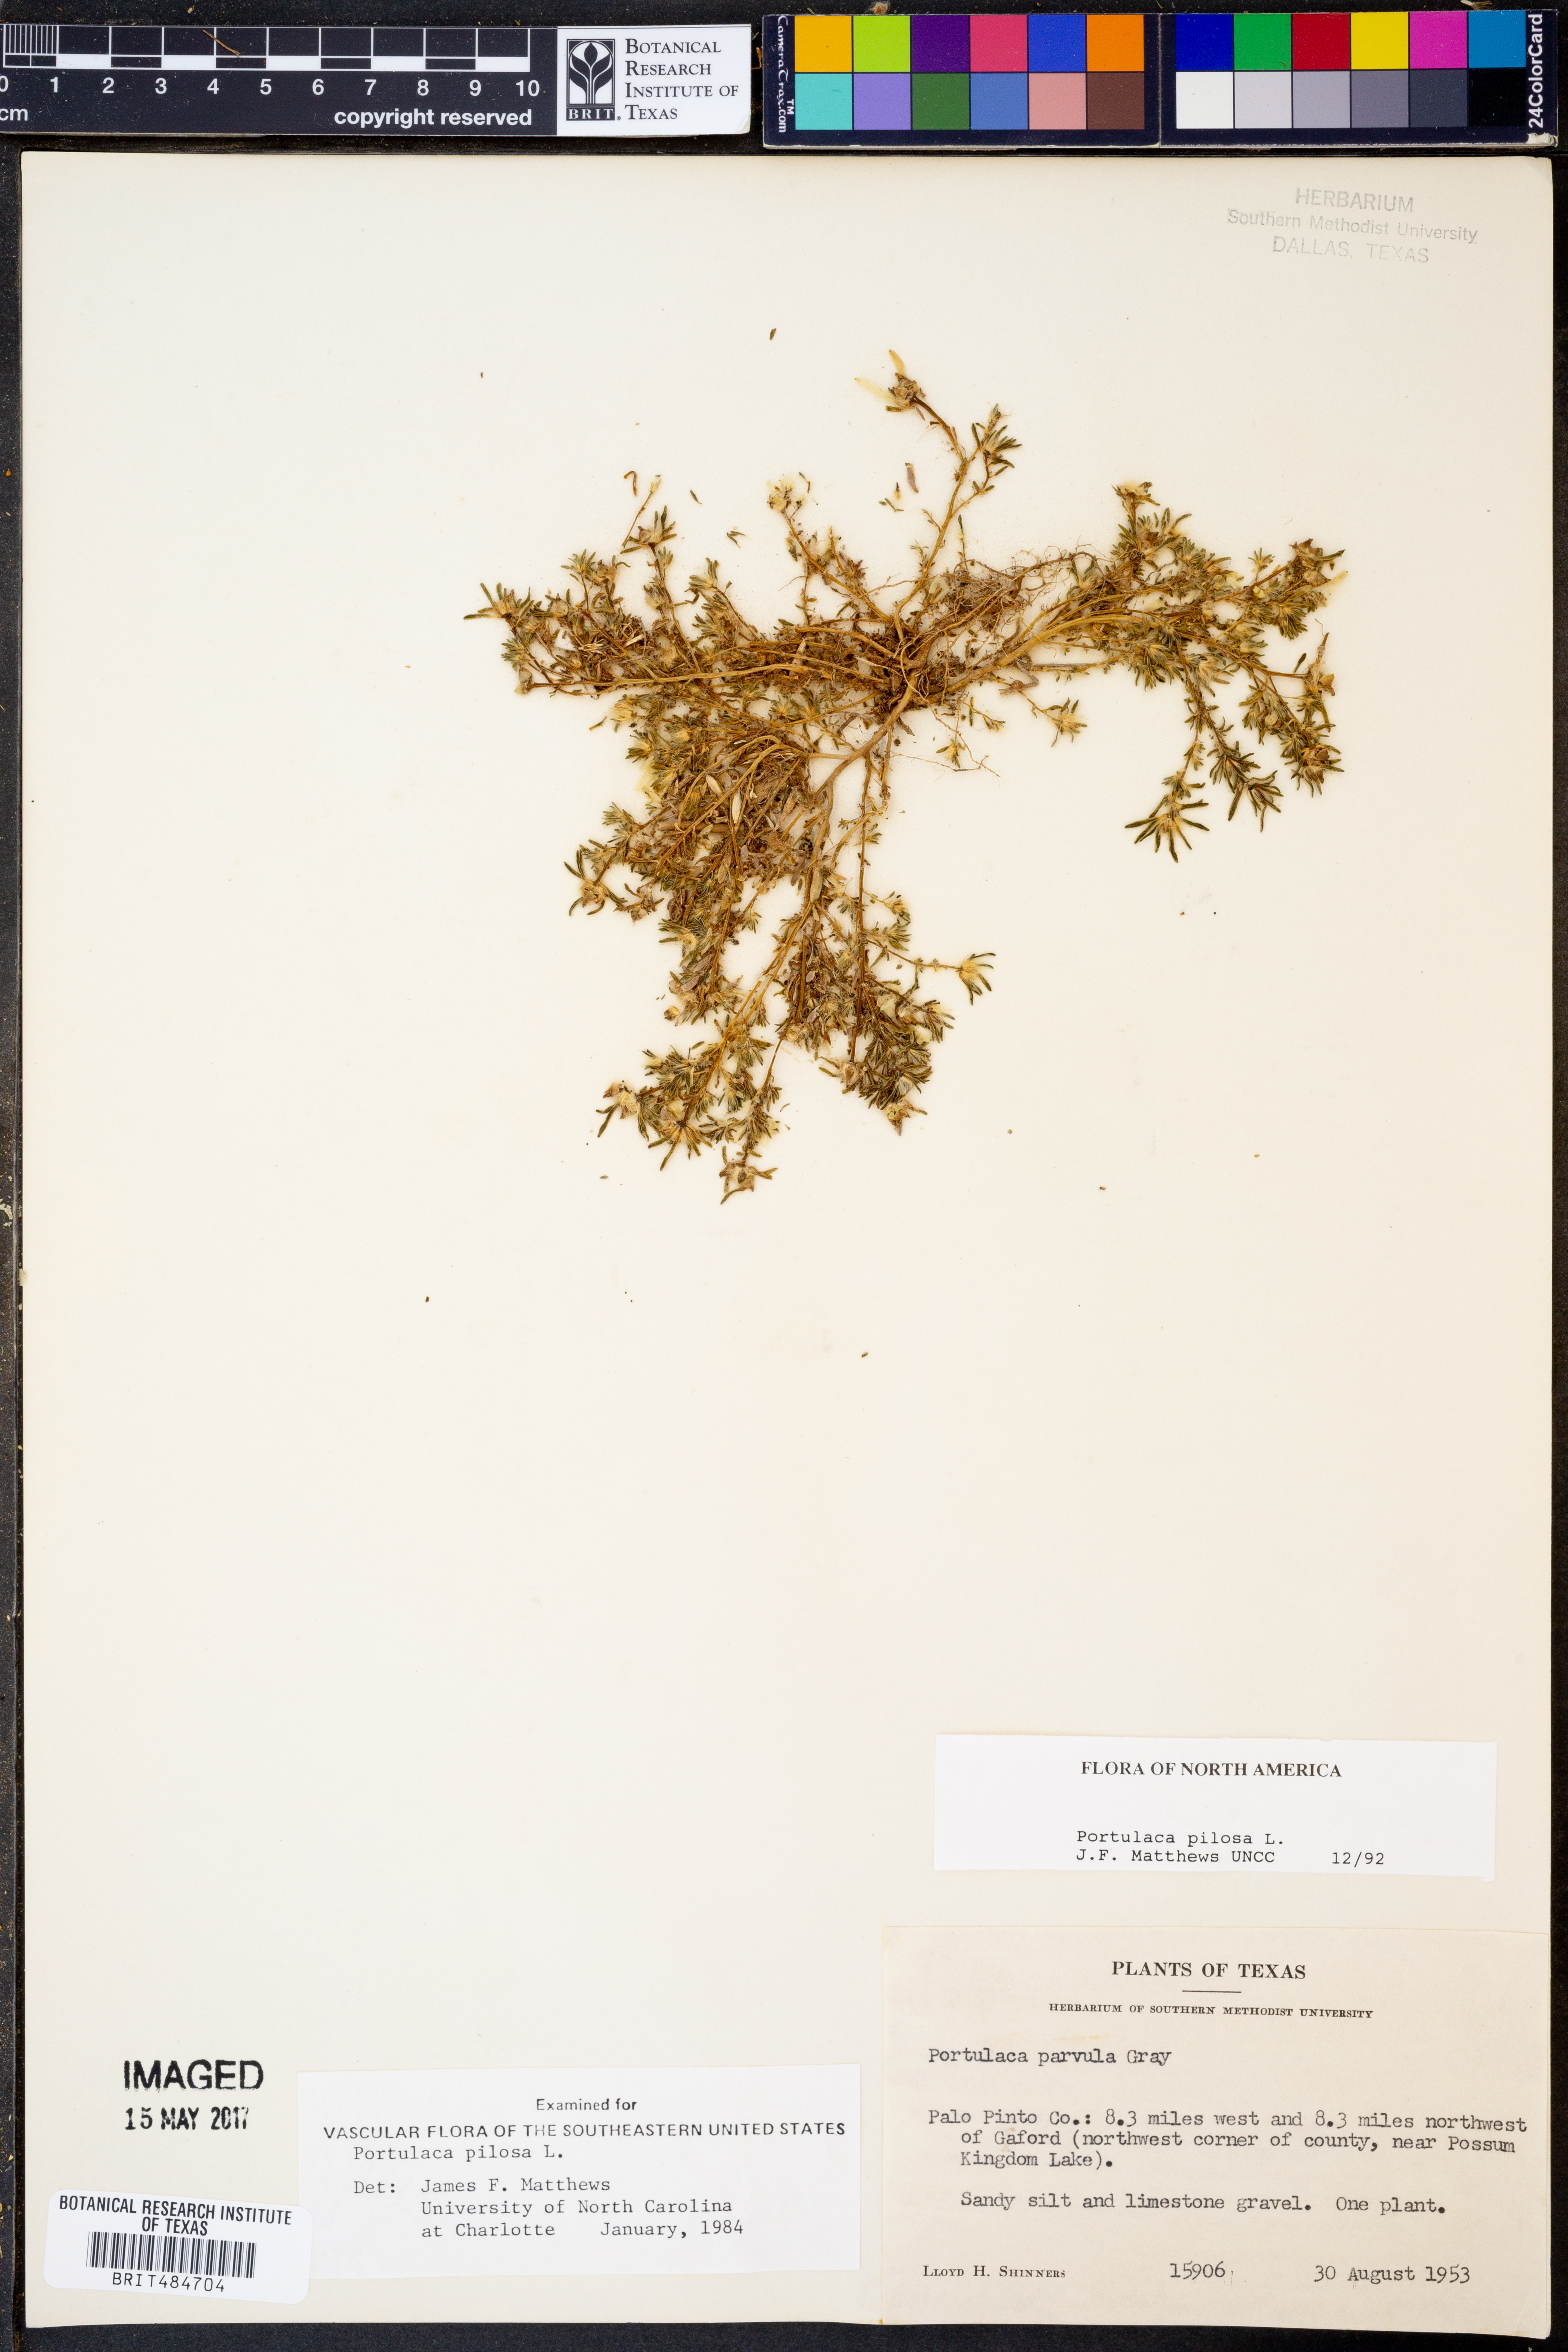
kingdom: Plantae
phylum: Tracheophyta
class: Magnoliopsida
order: Caryophyllales
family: Portulacaceae
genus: Portulaca
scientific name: Portulaca pilosa
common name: Kiss me quick
